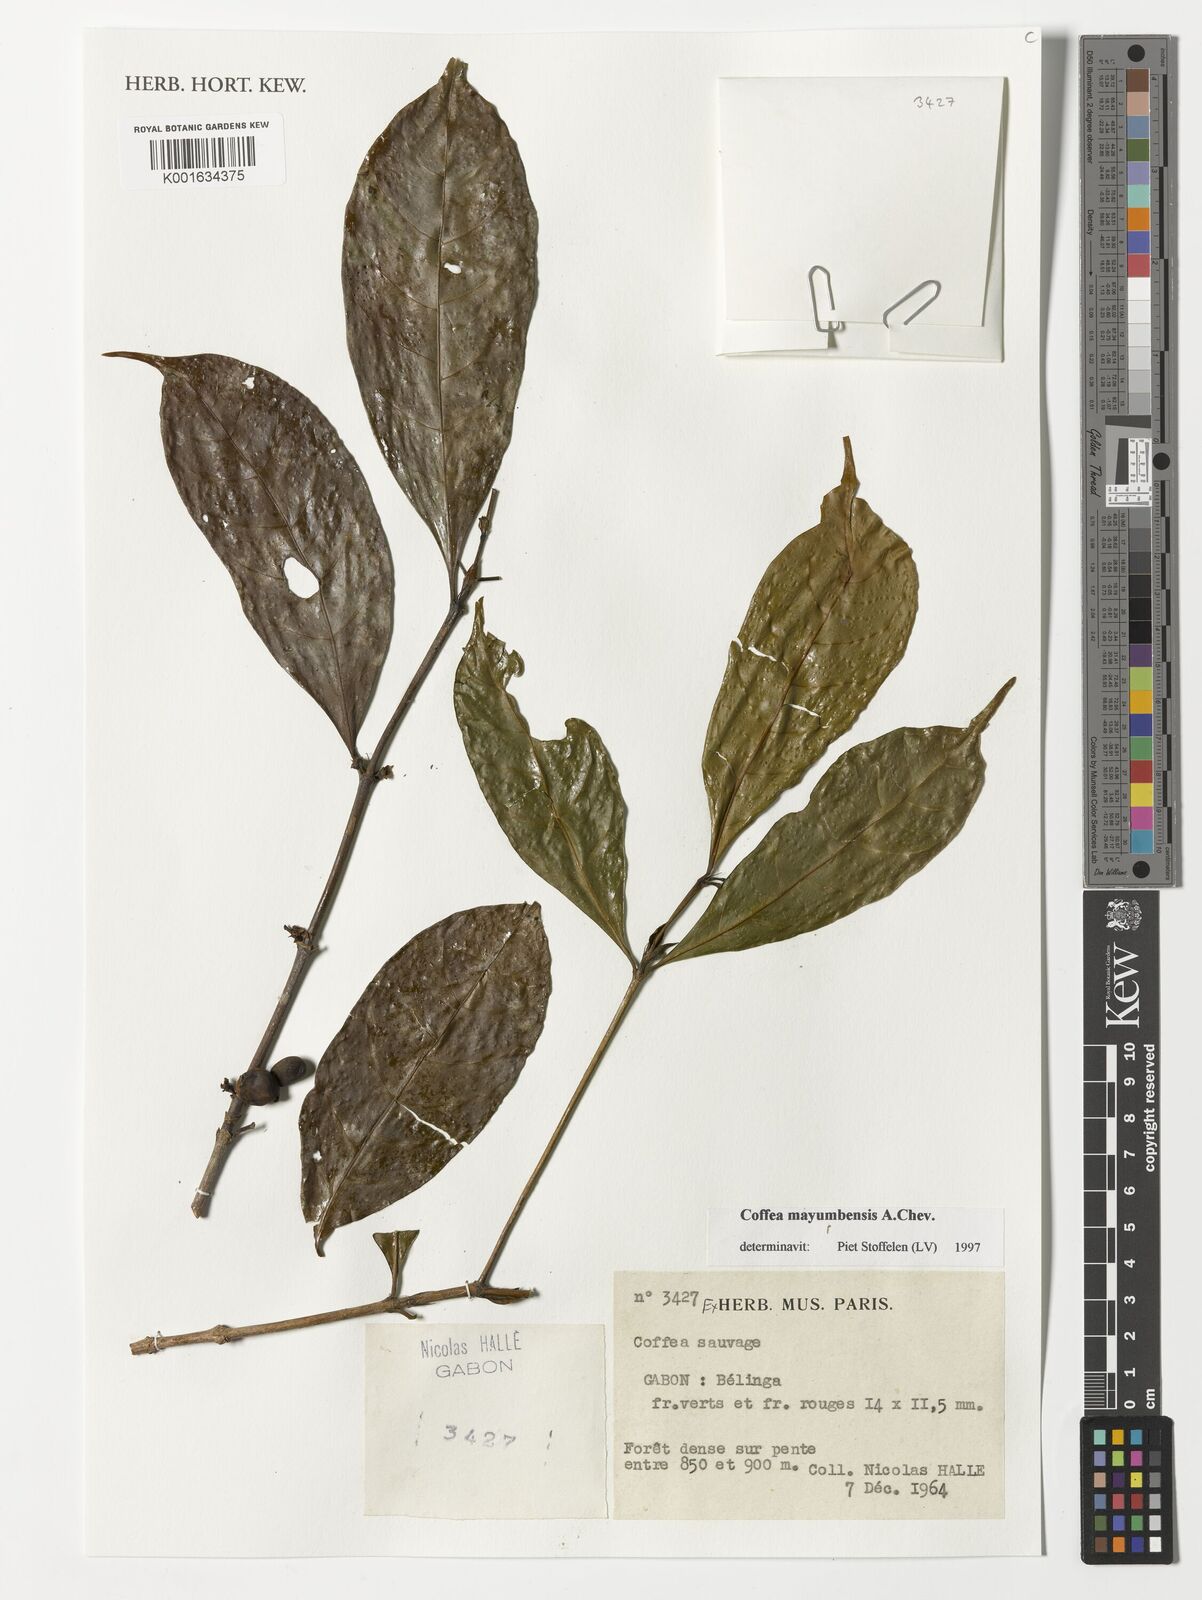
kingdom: Plantae
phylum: Tracheophyta
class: Magnoliopsida
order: Gentianales
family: Rubiaceae
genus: Coffea
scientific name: Coffea mayombensis
